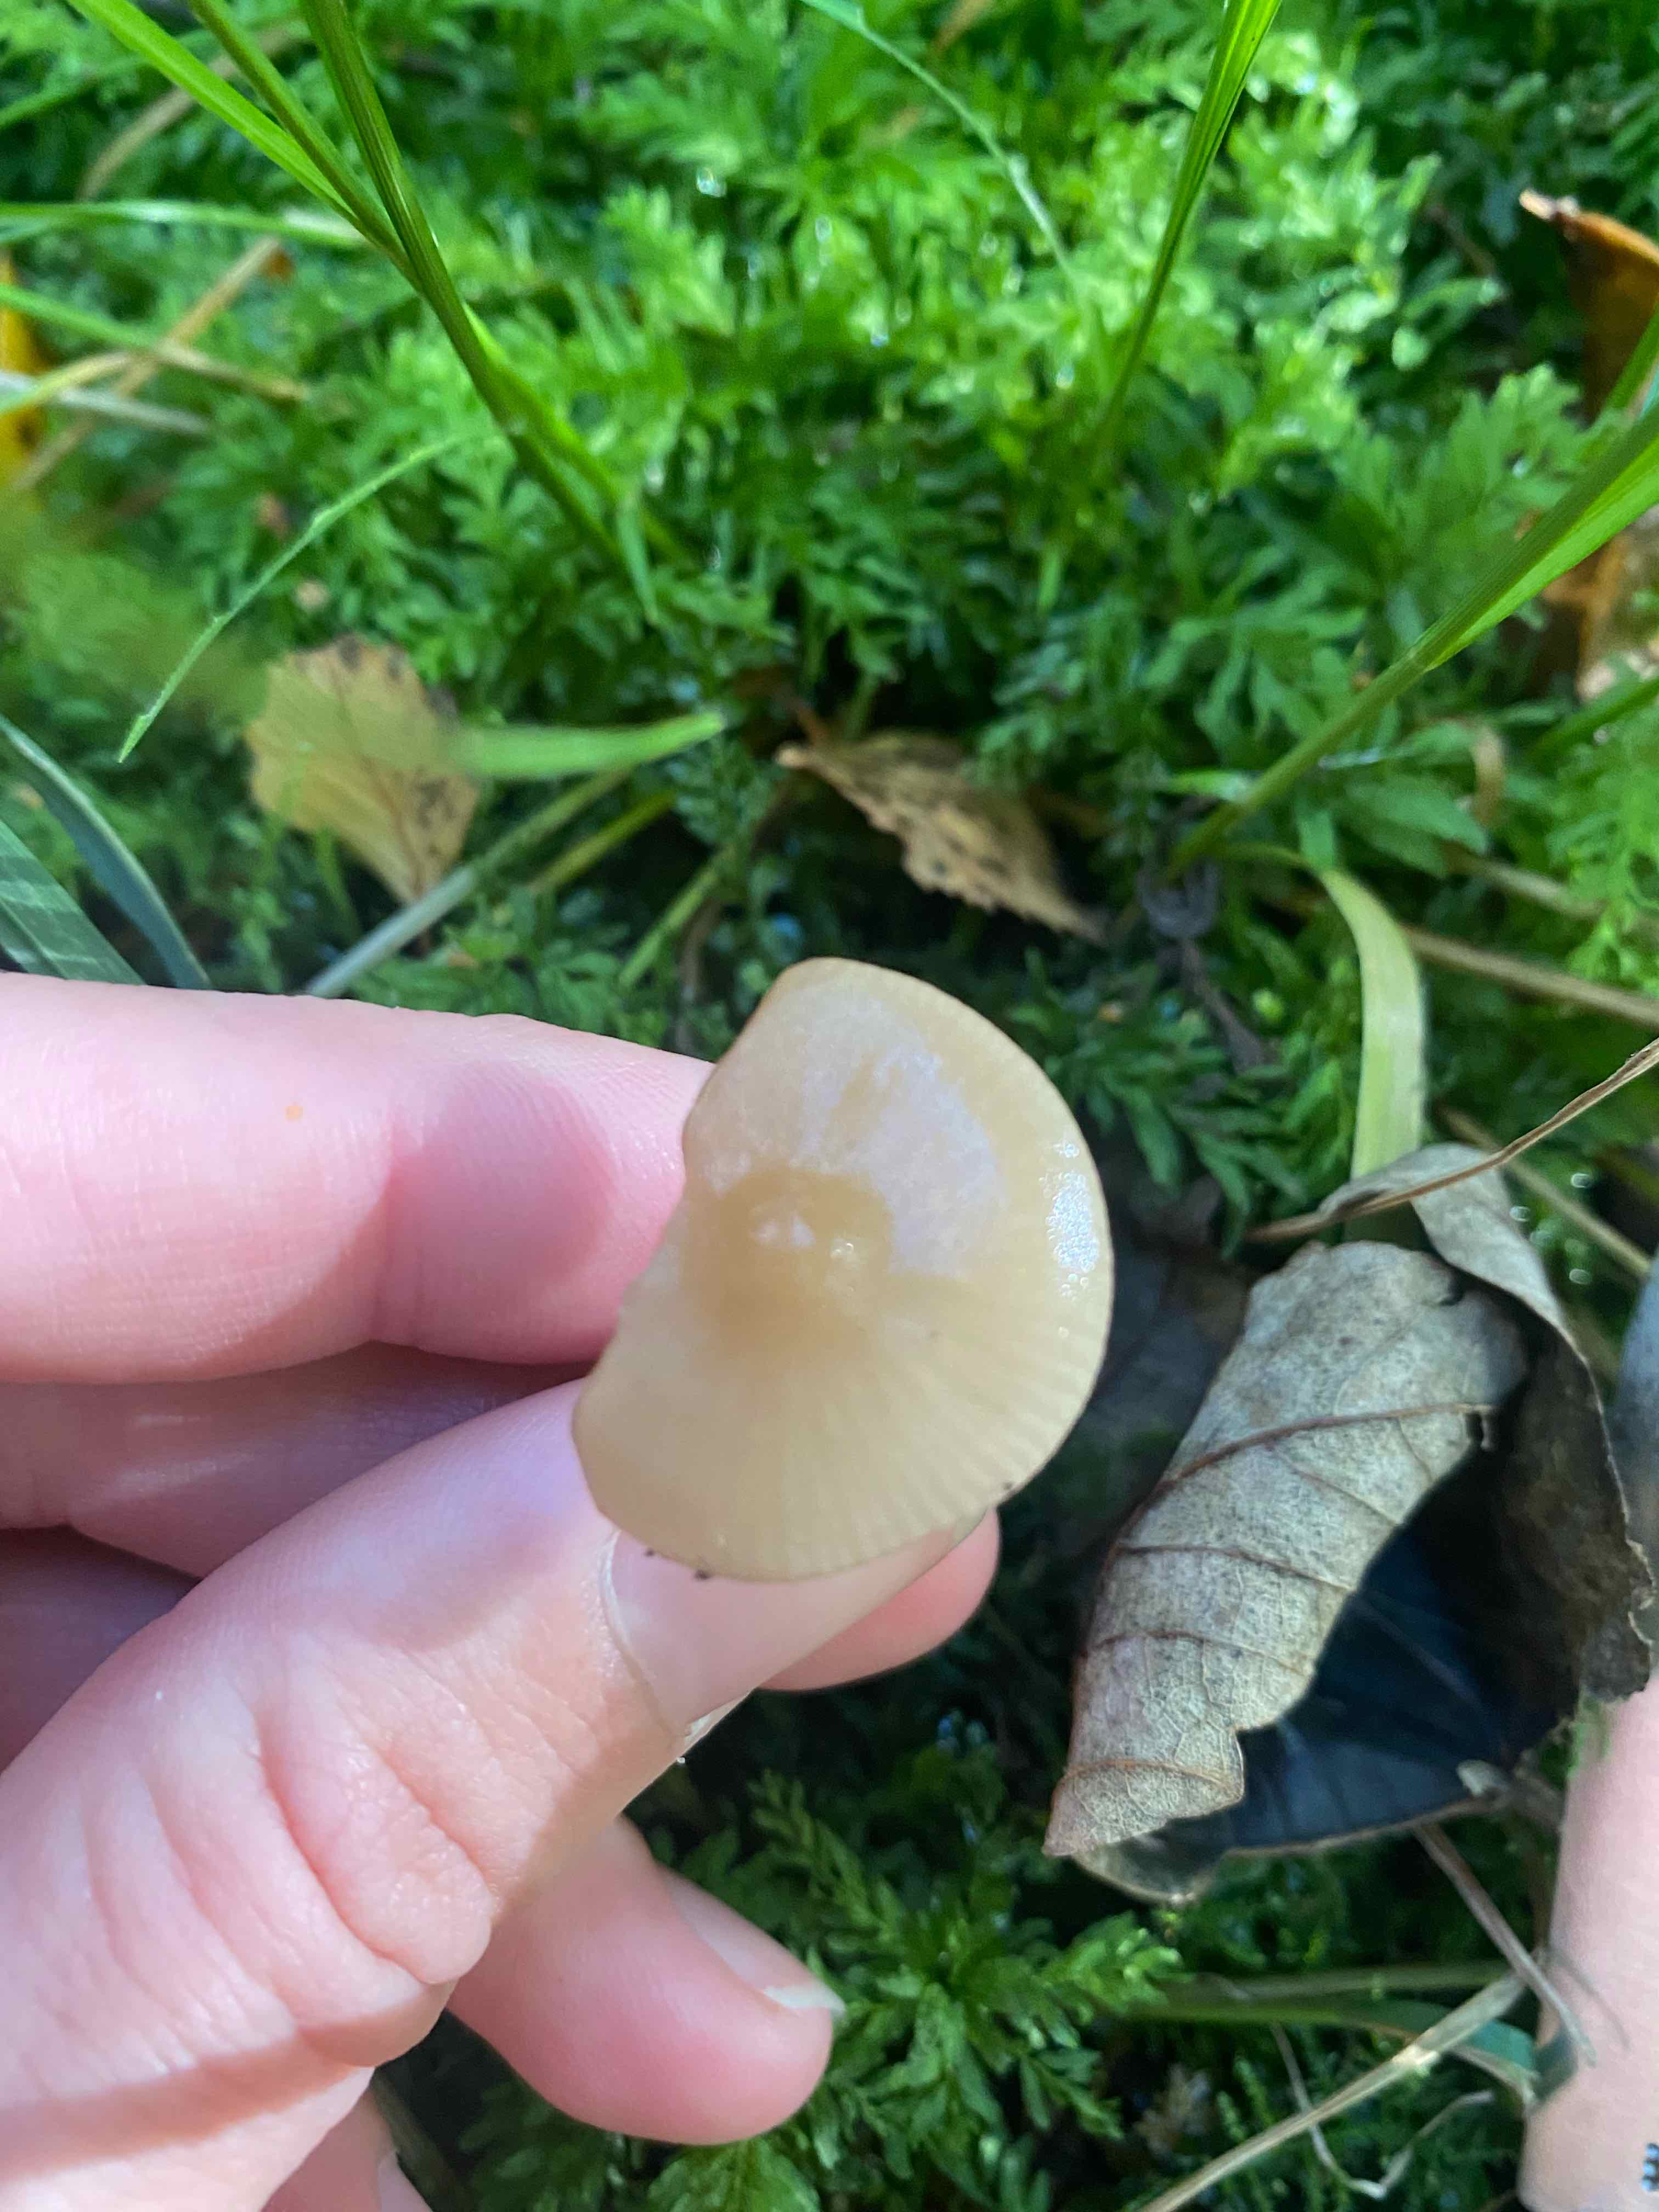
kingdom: Fungi
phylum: Basidiomycota
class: Agaricomycetes
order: Agaricales
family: Mycenaceae
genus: Mycena
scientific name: Mycena galericulata
